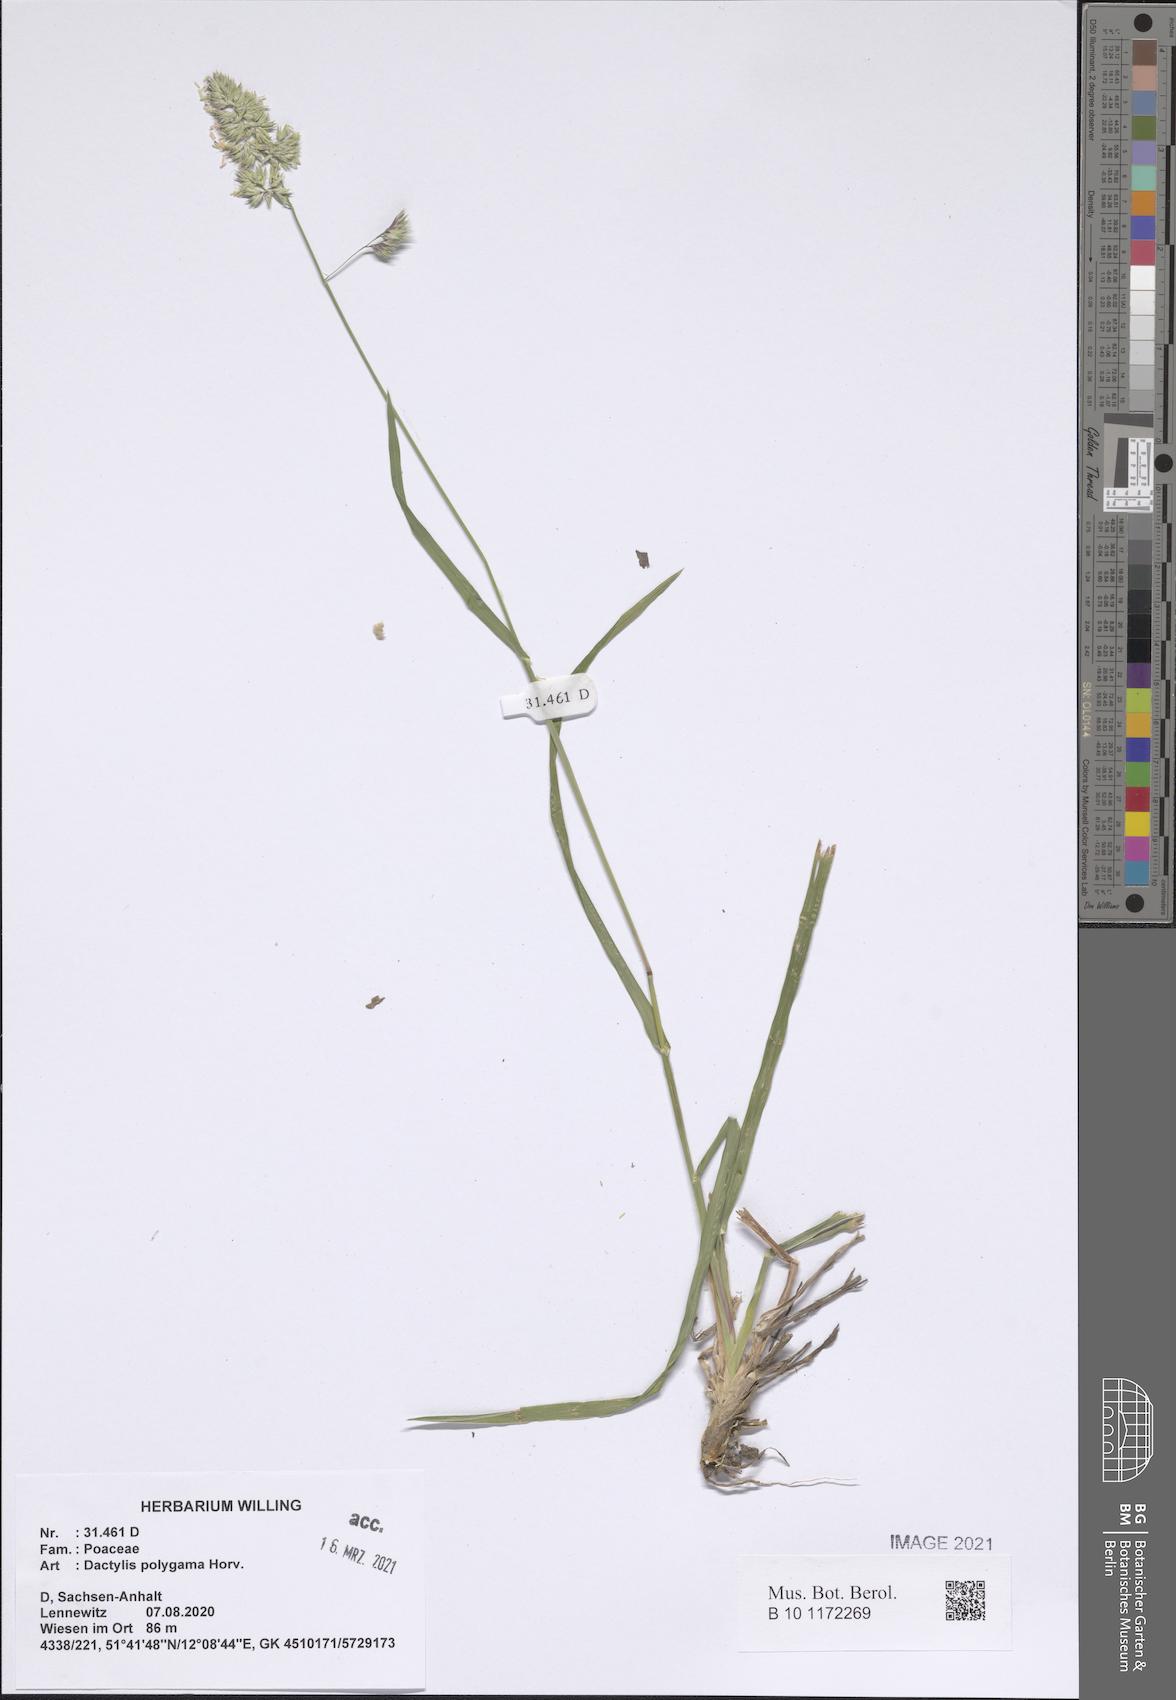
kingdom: Plantae
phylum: Tracheophyta
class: Liliopsida
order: Poales
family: Poaceae
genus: Dactylis
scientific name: Dactylis glomerata
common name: Orchardgrass
